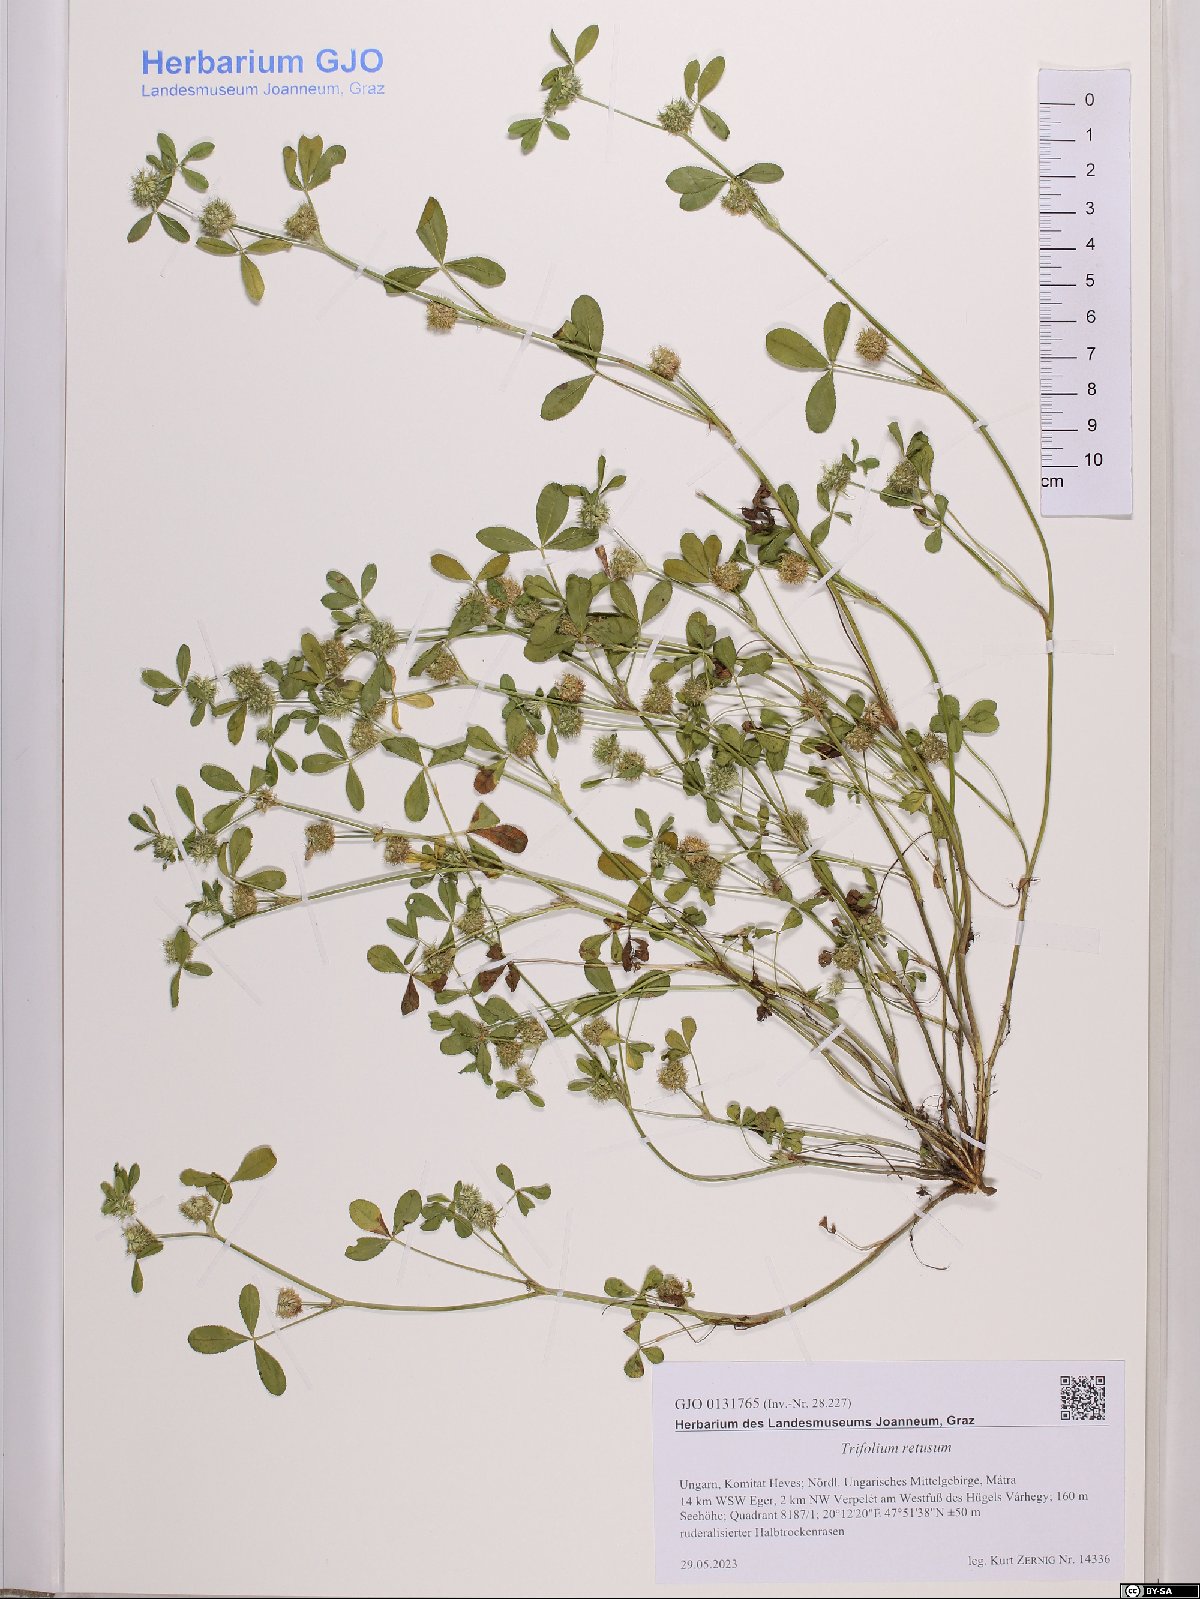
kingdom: Plantae
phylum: Tracheophyta
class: Magnoliopsida
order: Fabales
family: Fabaceae
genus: Trifolium
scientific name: Trifolium retusum
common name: Teasel clover
